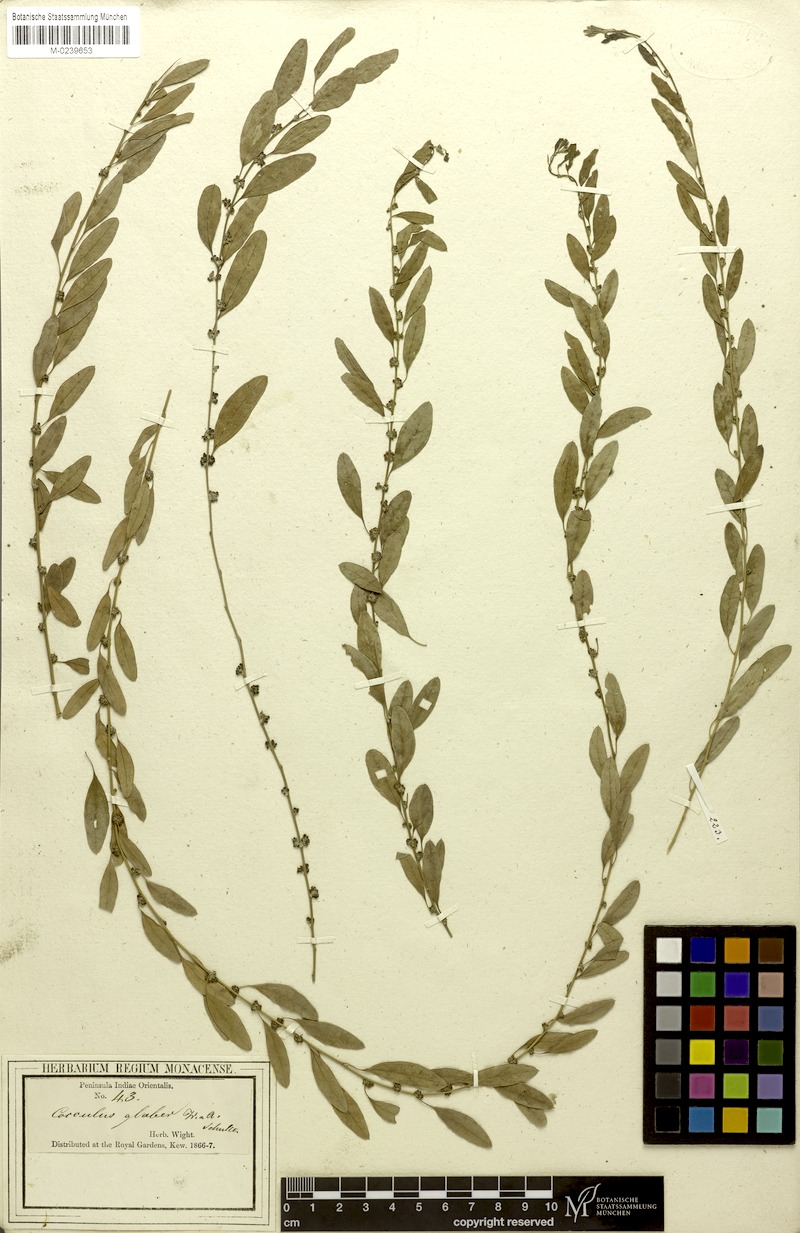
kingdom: Plantae
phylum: Tracheophyta
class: Magnoliopsida
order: Ranunculales
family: Menispermaceae
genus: Cocculus
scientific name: Cocculus pendulus
